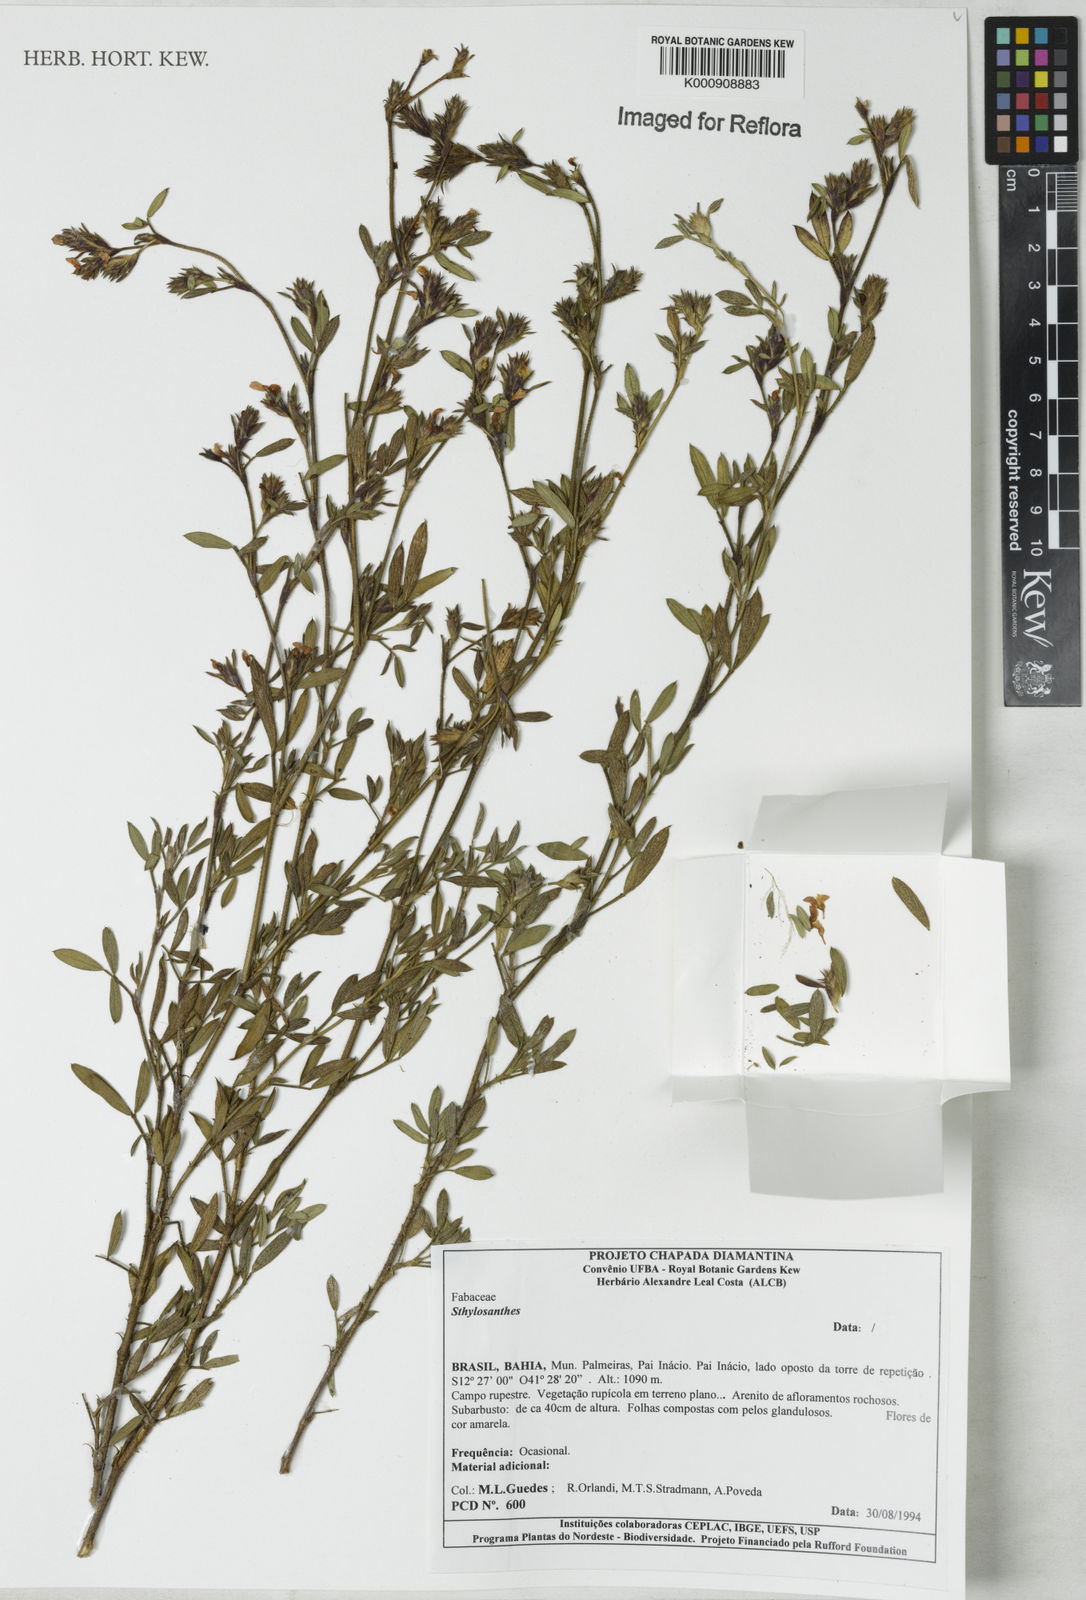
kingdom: Plantae
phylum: Tracheophyta
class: Magnoliopsida
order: Fabales
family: Fabaceae
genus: Stylosanthes
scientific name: Stylosanthes
